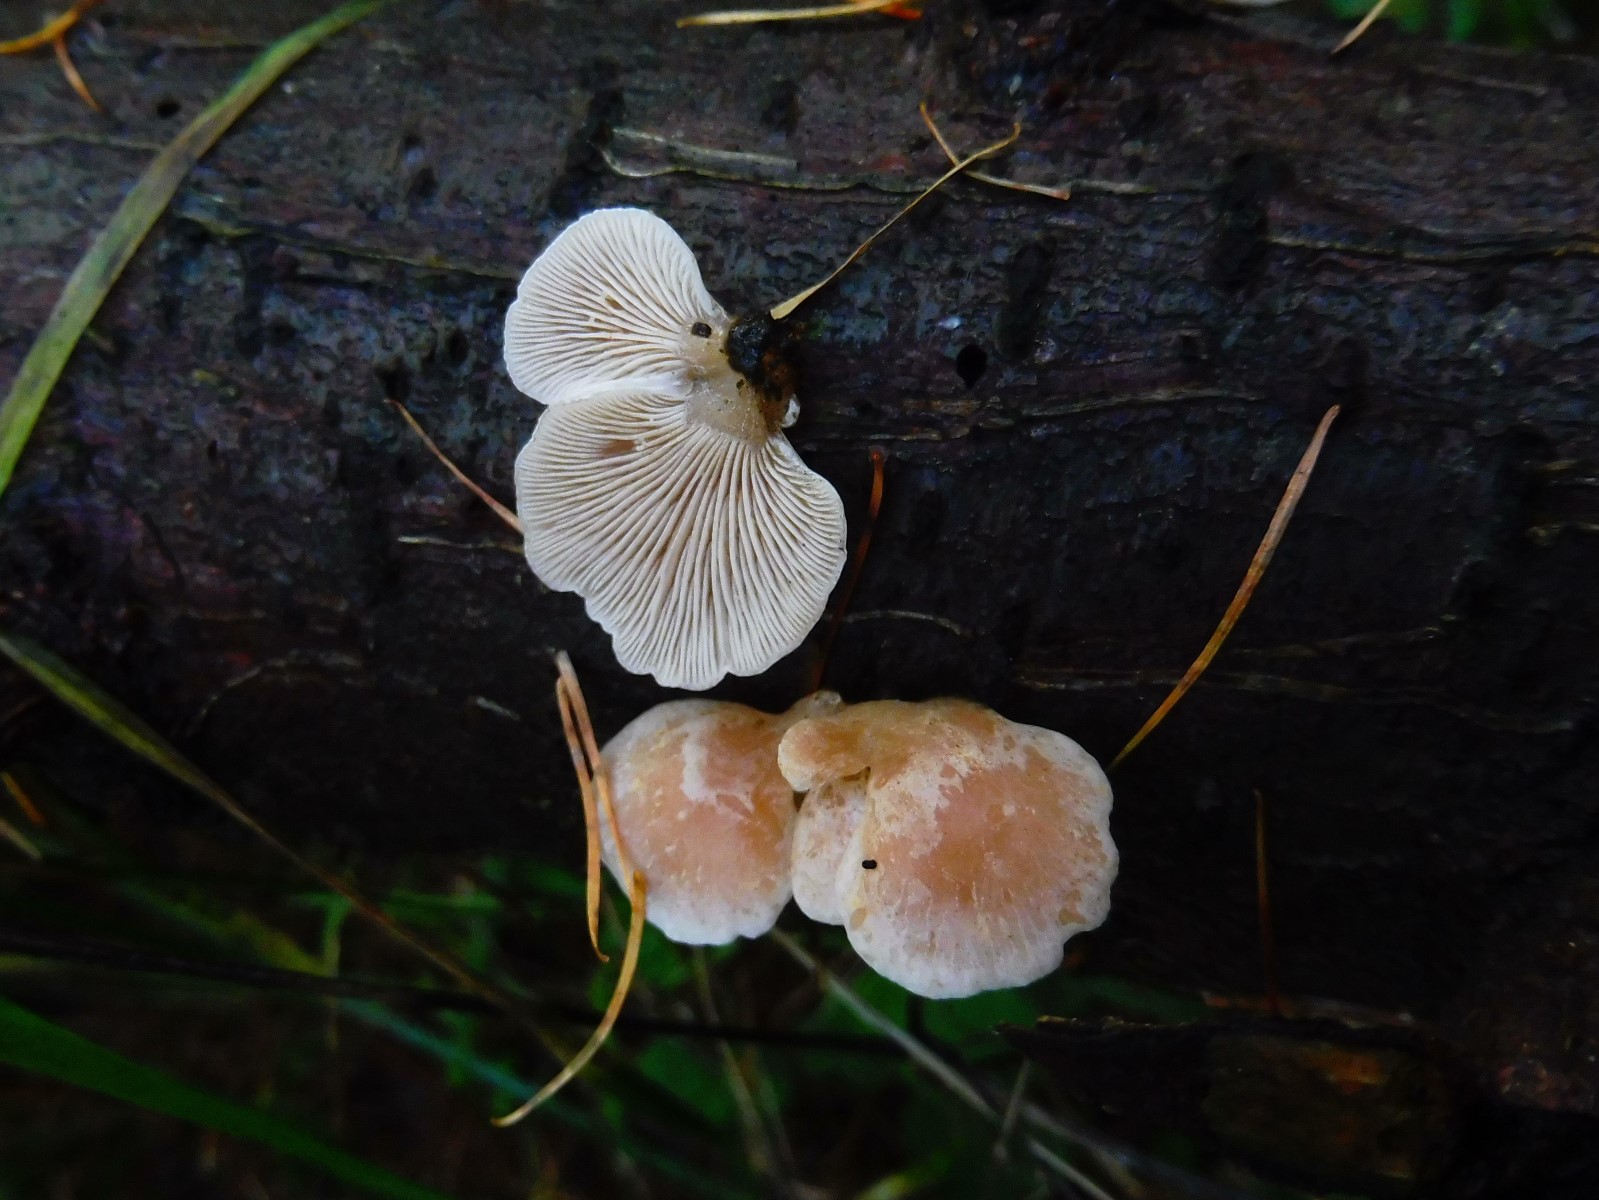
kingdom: Fungi
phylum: Basidiomycota
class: Agaricomycetes
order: Agaricales
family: Mycenaceae
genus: Panellus
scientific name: Panellus mitis
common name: mild epaulethat
